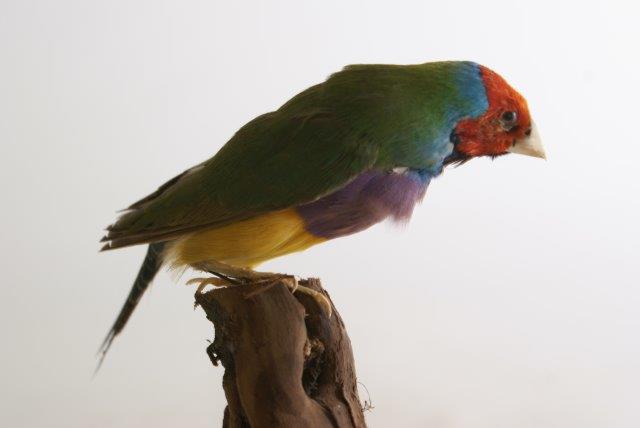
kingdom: Animalia
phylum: Chordata
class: Aves
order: Passeriformes
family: Estrildidae
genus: Erythrura
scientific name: Erythrura gouldiae
